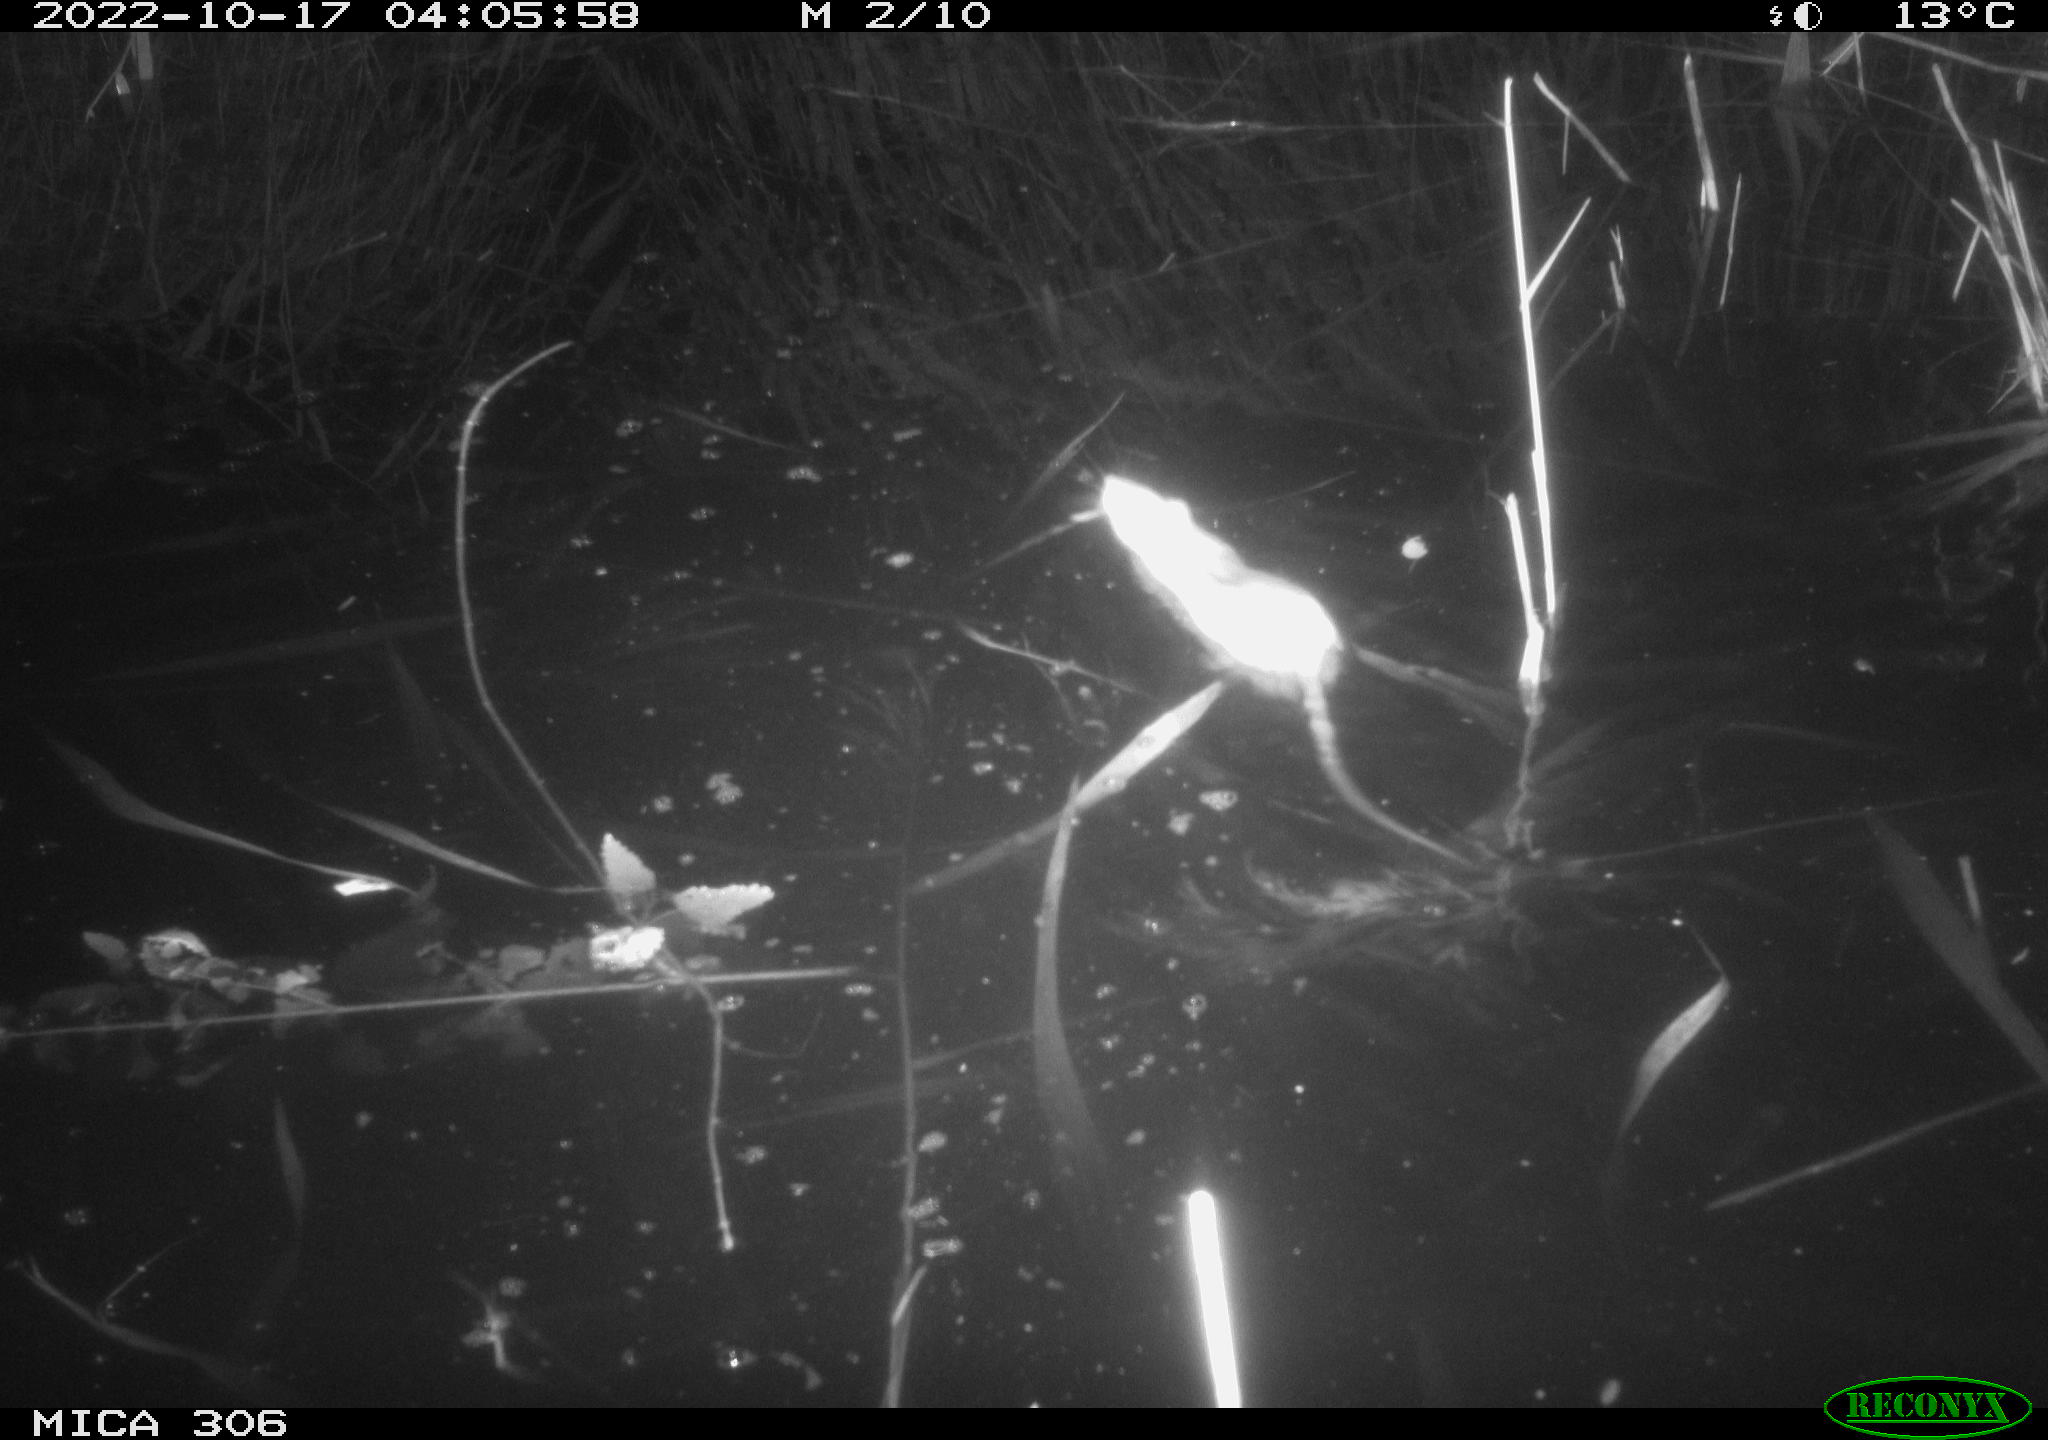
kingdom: Animalia
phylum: Chordata
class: Mammalia
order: Rodentia
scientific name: Rodentia
